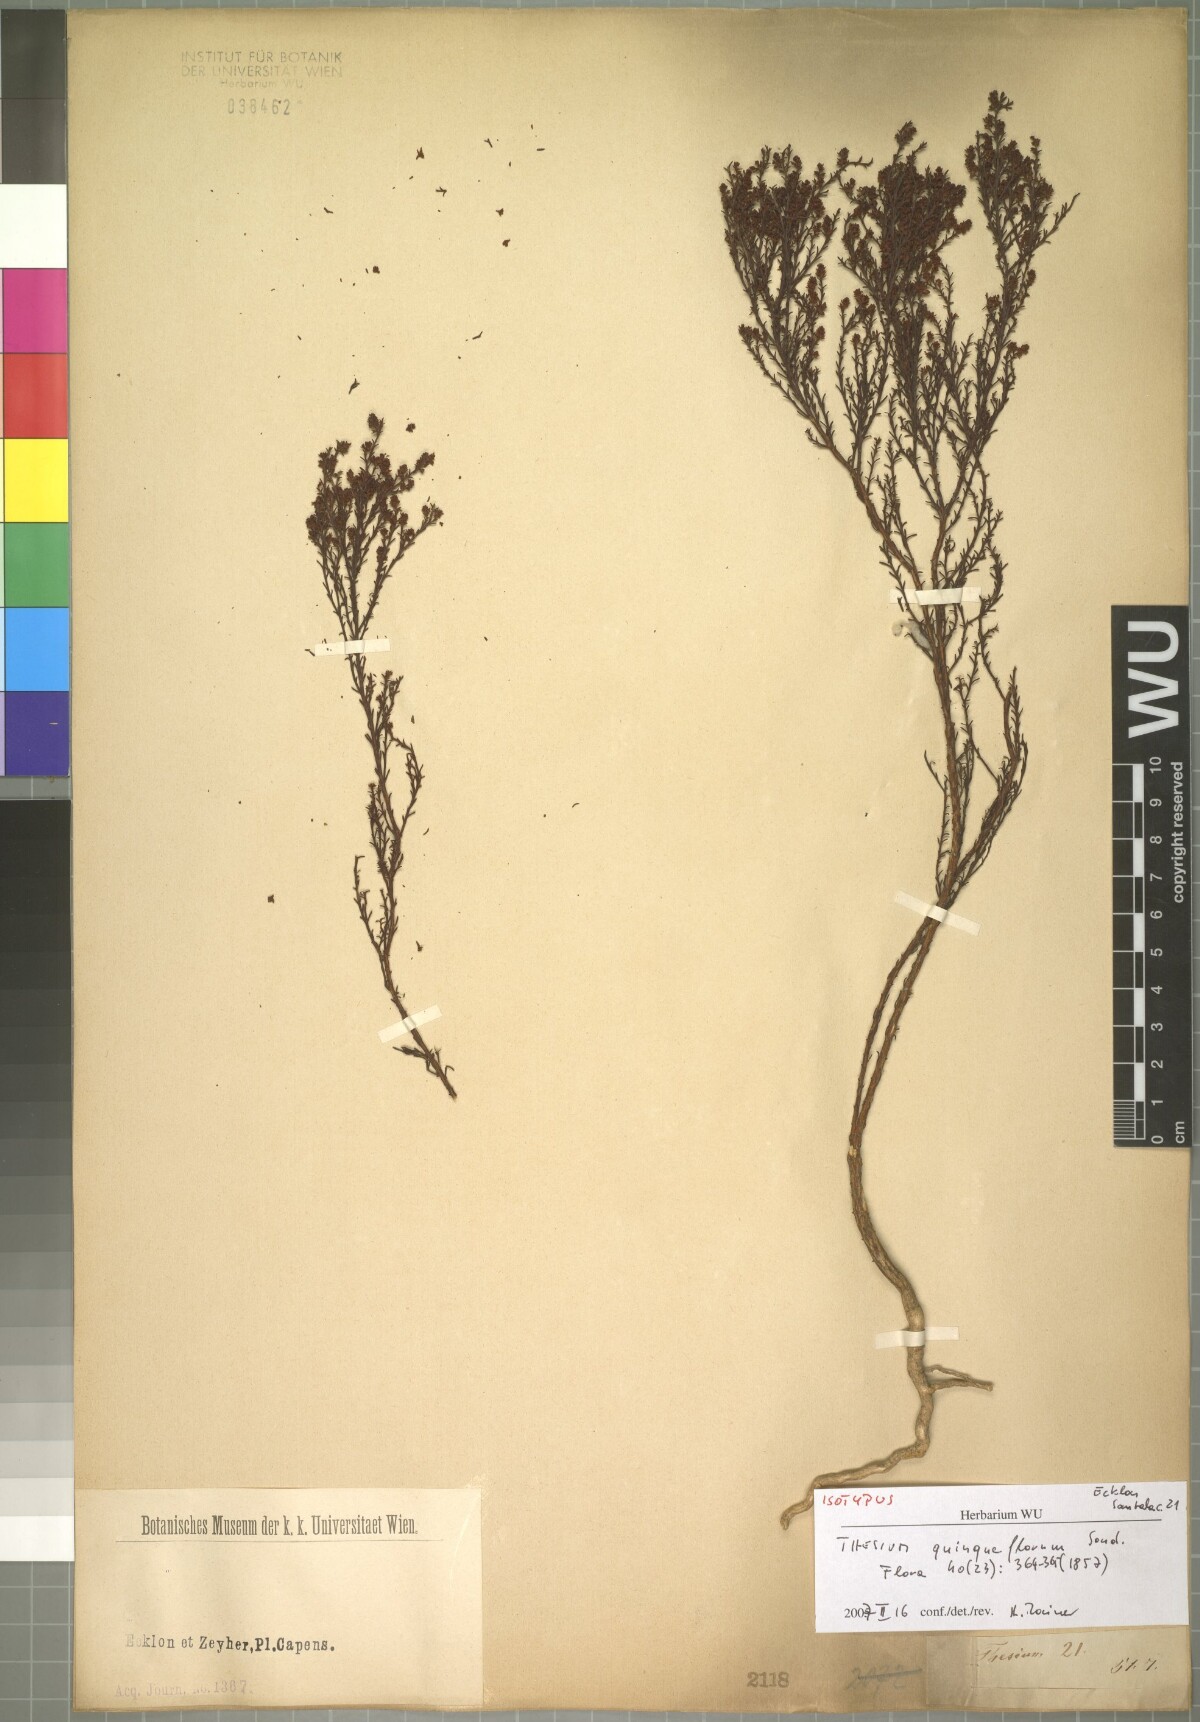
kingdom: Plantae
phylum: Tracheophyta
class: Magnoliopsida
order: Santalales
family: Thesiaceae
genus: Thesium
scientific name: Thesium quinqueflorum
